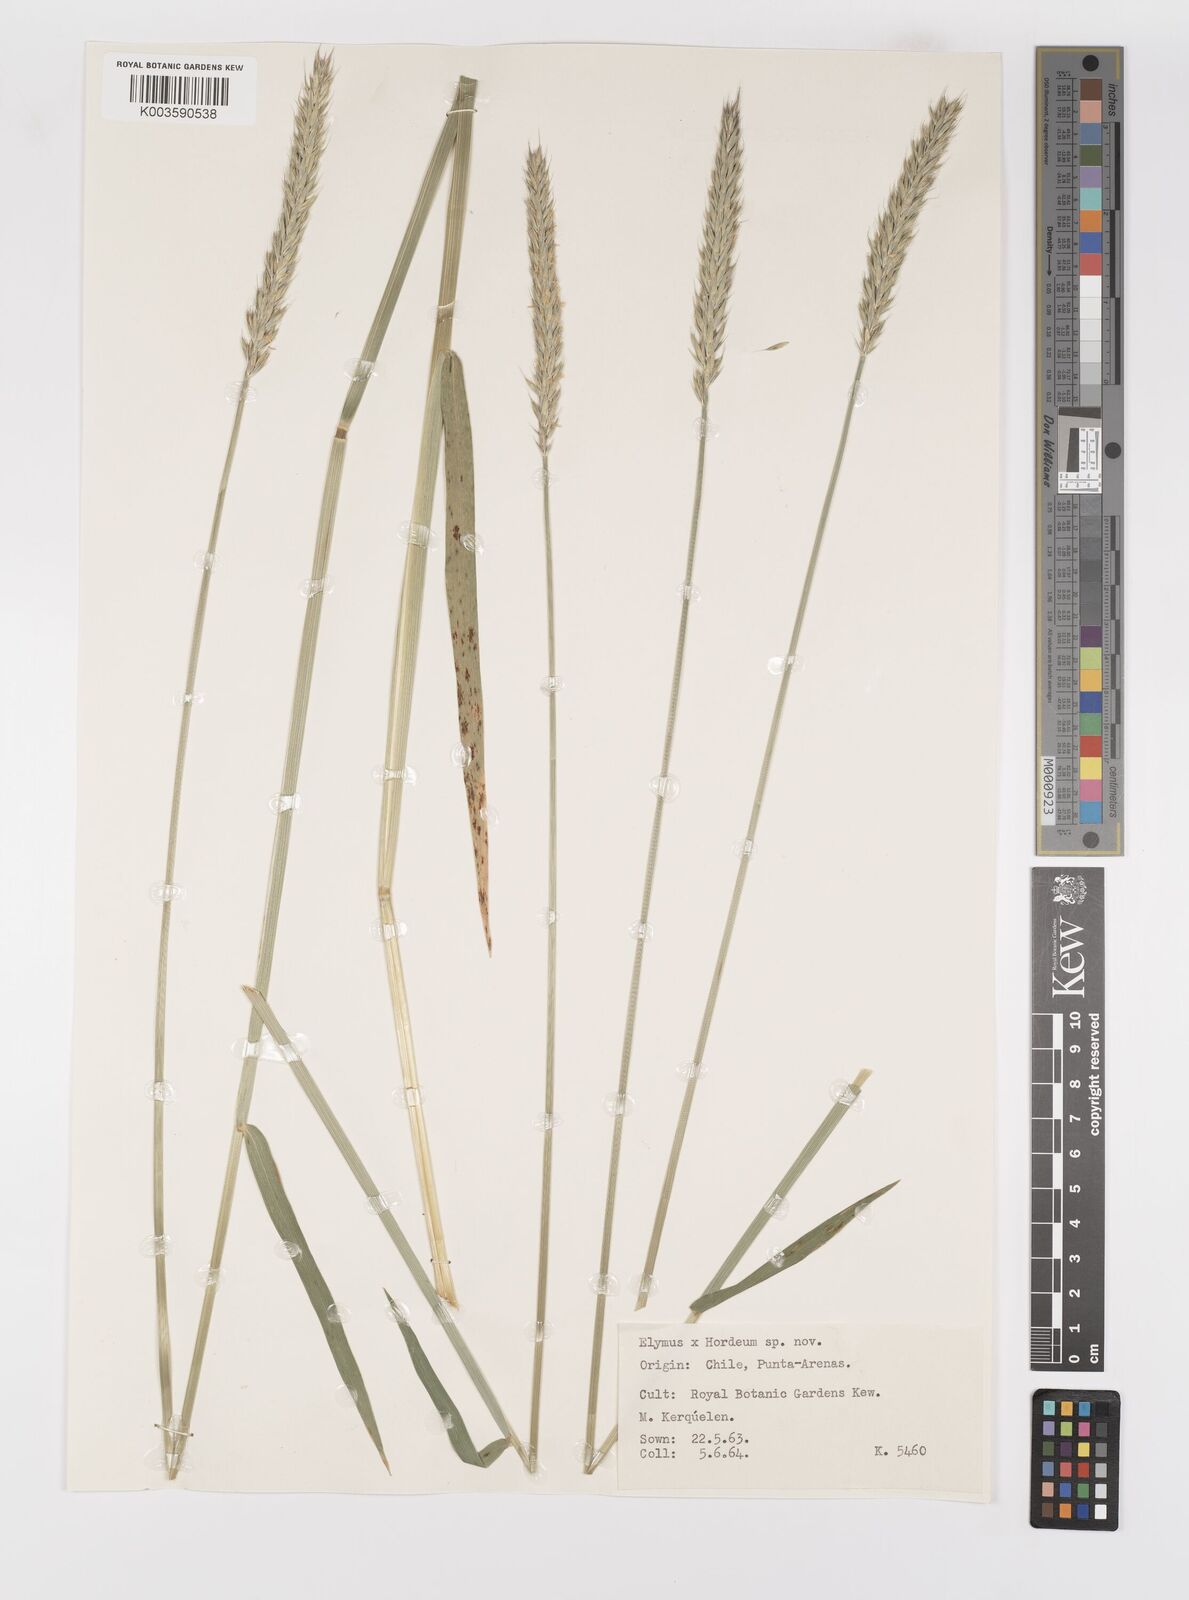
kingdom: Plantae
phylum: Tracheophyta
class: Liliopsida
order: Poales
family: Poaceae
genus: Elymus
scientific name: Elymus angulatus
